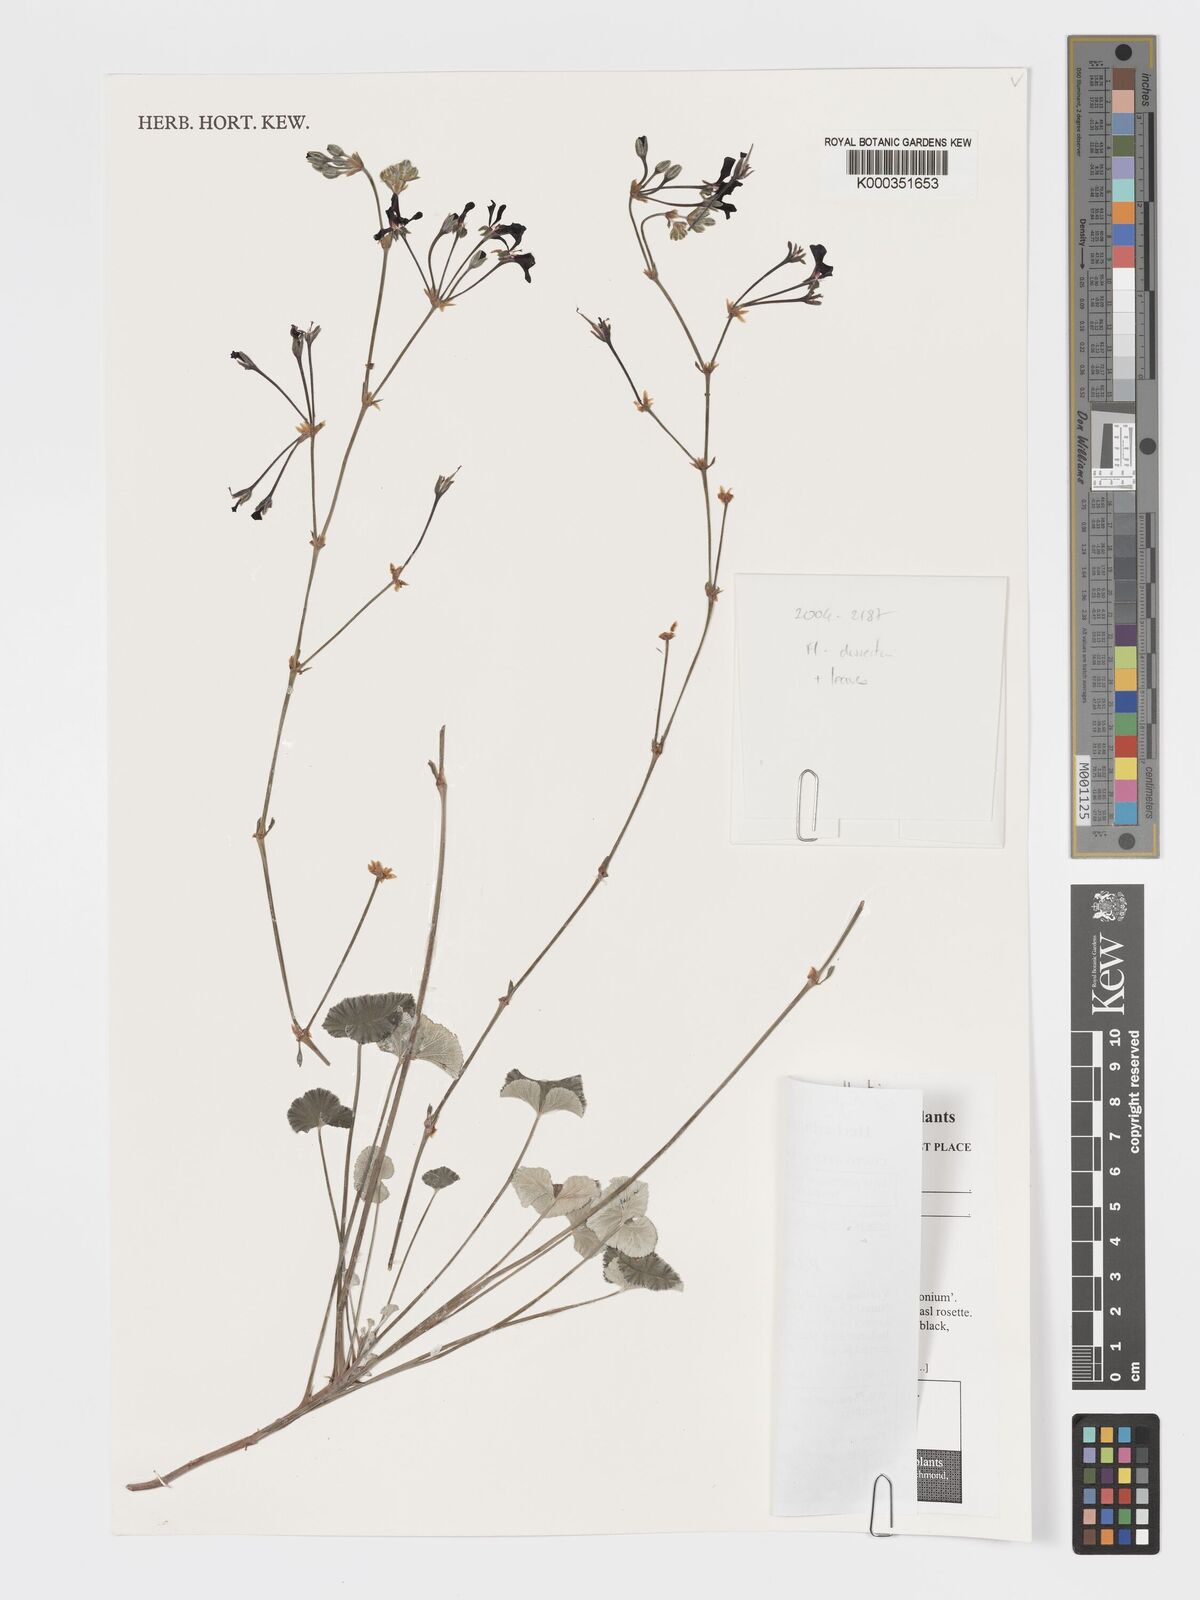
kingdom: Plantae
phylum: Tracheophyta
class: Magnoliopsida
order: Geraniales
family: Geraniaceae
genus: Pelargonium
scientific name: Pelargonium sidoides
